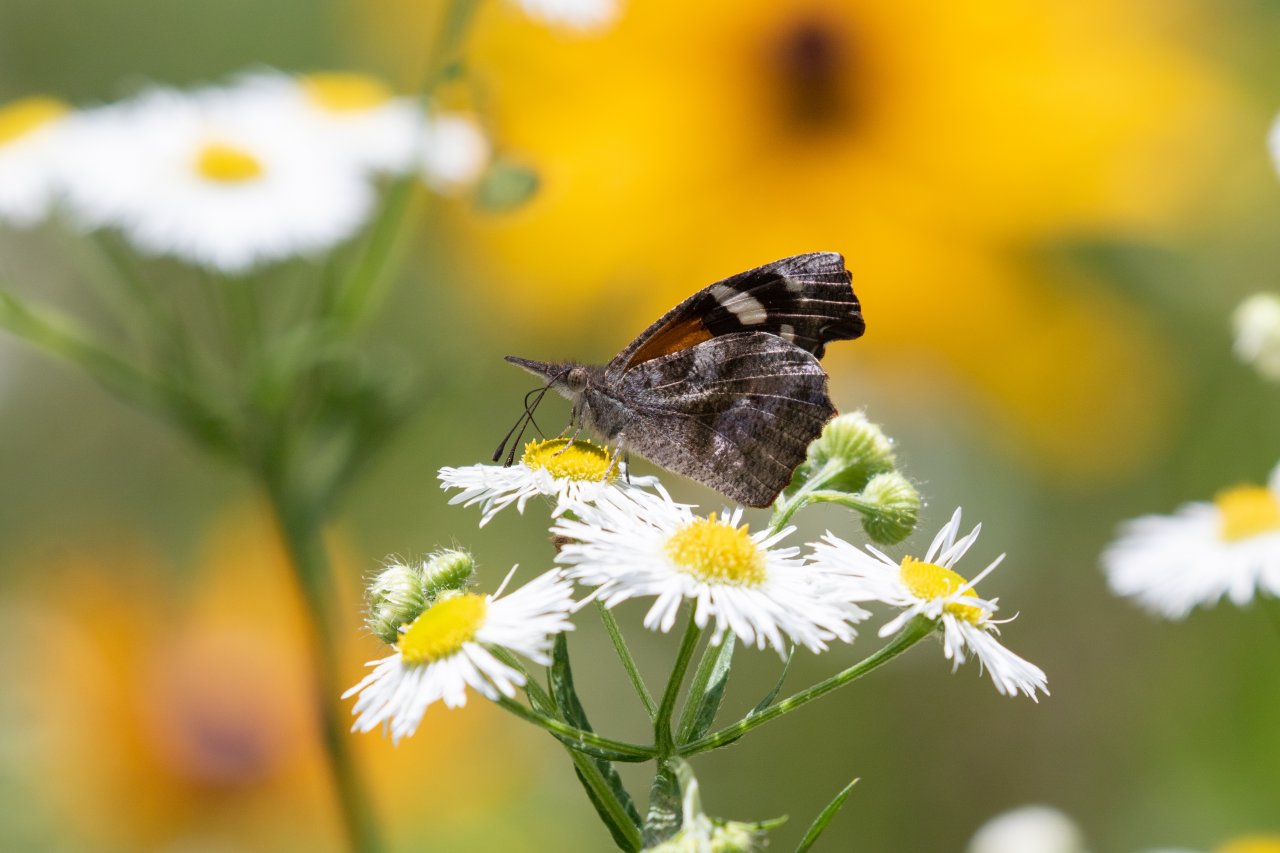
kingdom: Animalia
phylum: Arthropoda
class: Insecta
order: Lepidoptera
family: Nymphalidae
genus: Libytheana
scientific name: Libytheana carinenta
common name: American Snout
